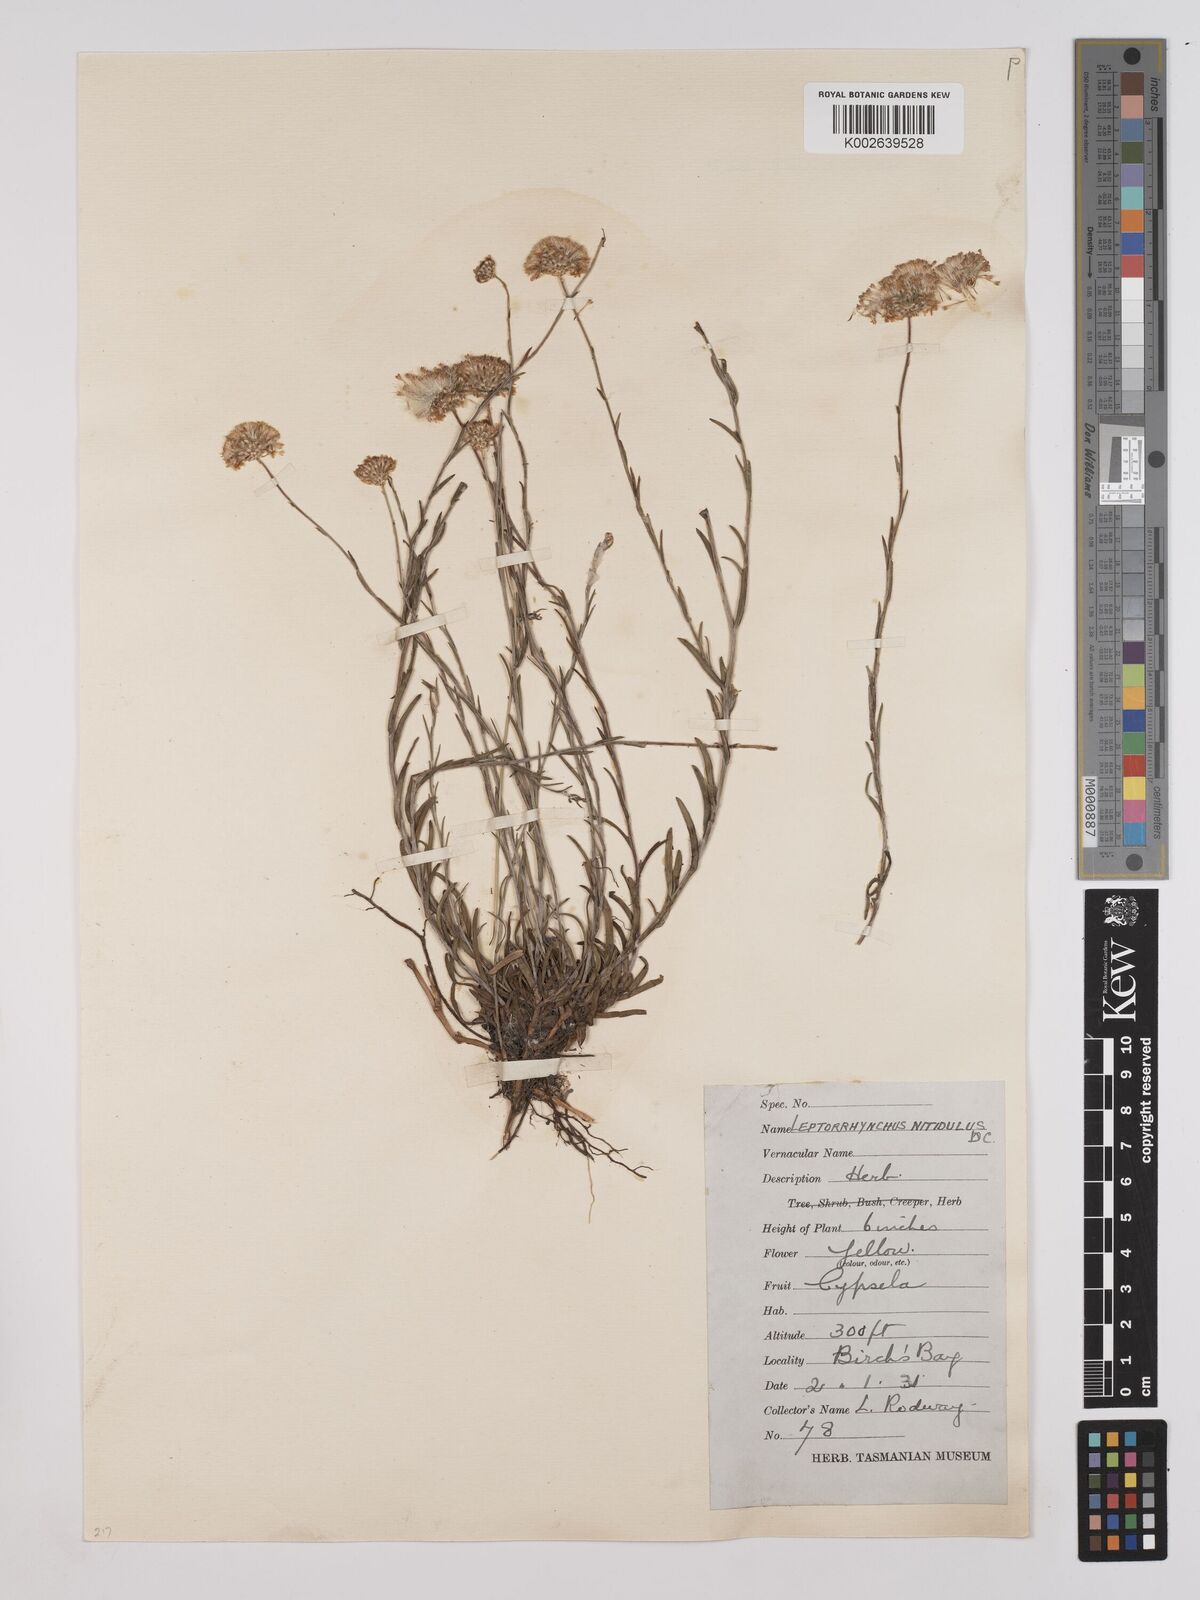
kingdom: Plantae
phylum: Tracheophyta
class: Magnoliopsida
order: Asterales
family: Asteraceae
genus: Leptorhynchos
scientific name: Leptorhynchos nitidulus
